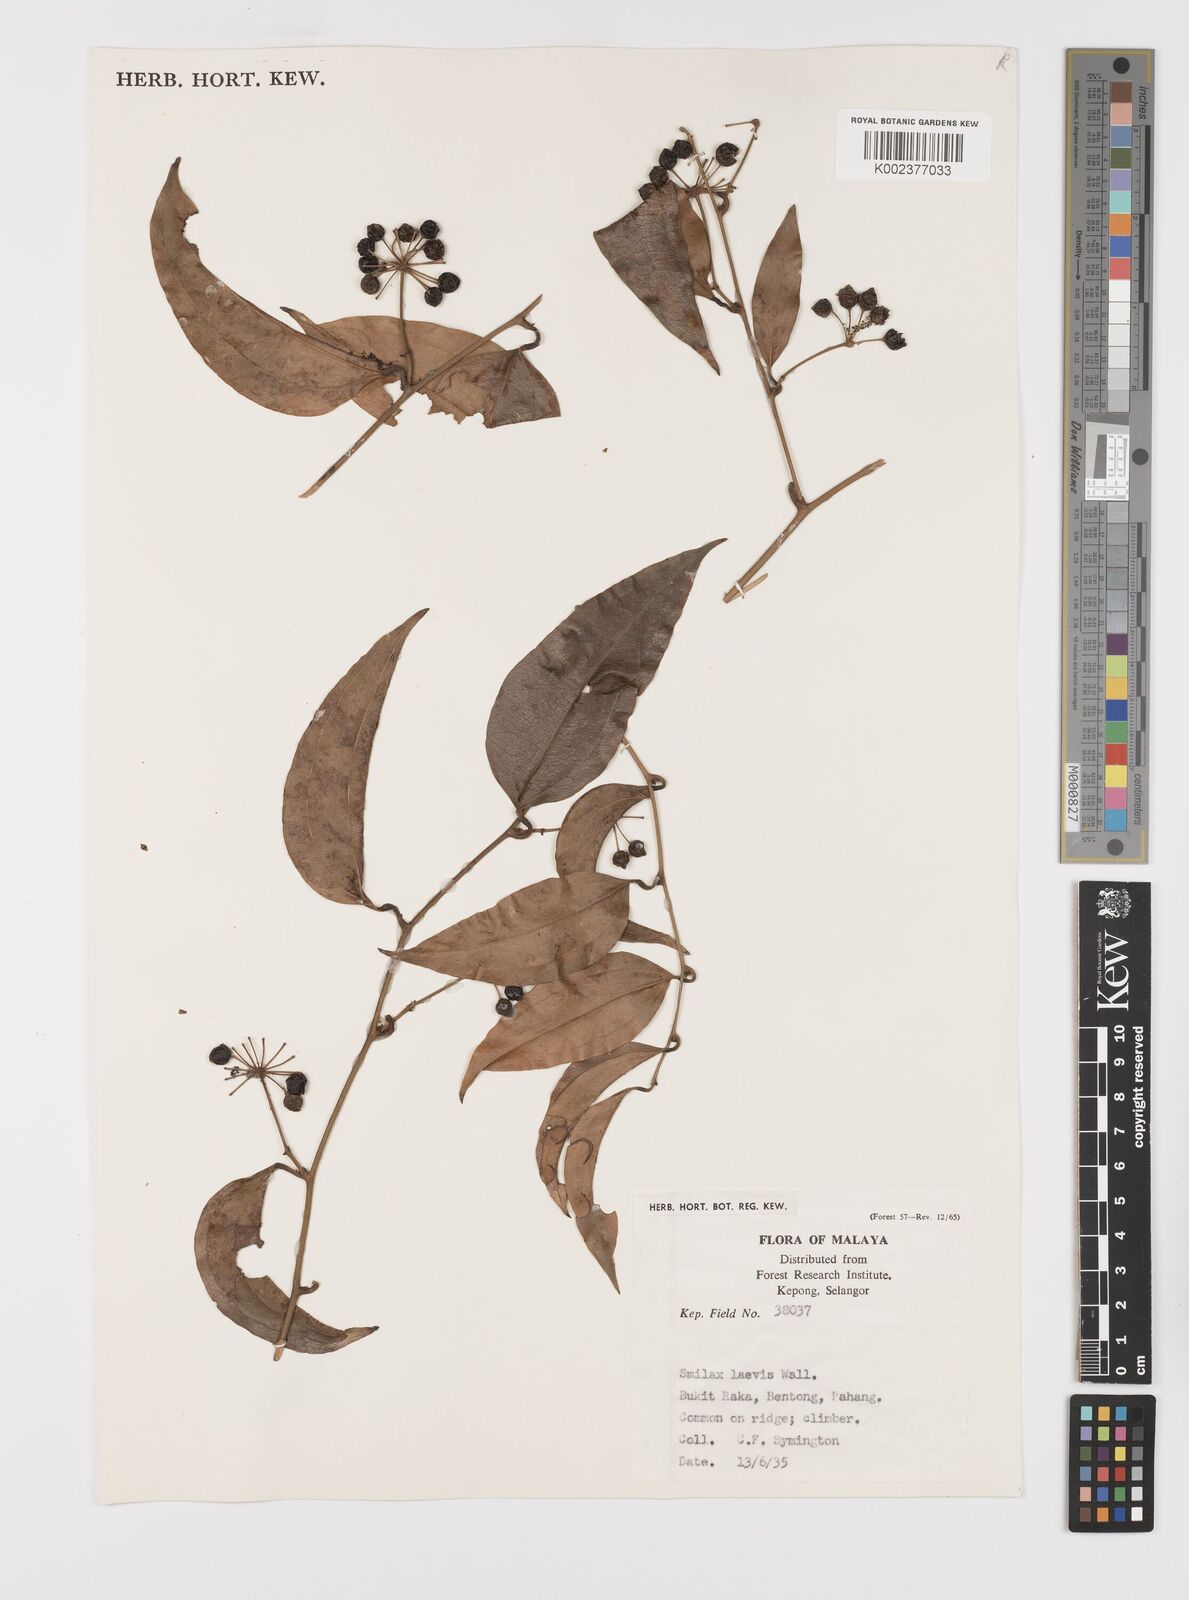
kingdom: Plantae
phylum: Tracheophyta
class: Liliopsida
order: Liliales
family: Smilacaceae
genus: Smilax
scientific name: Smilax laevis
